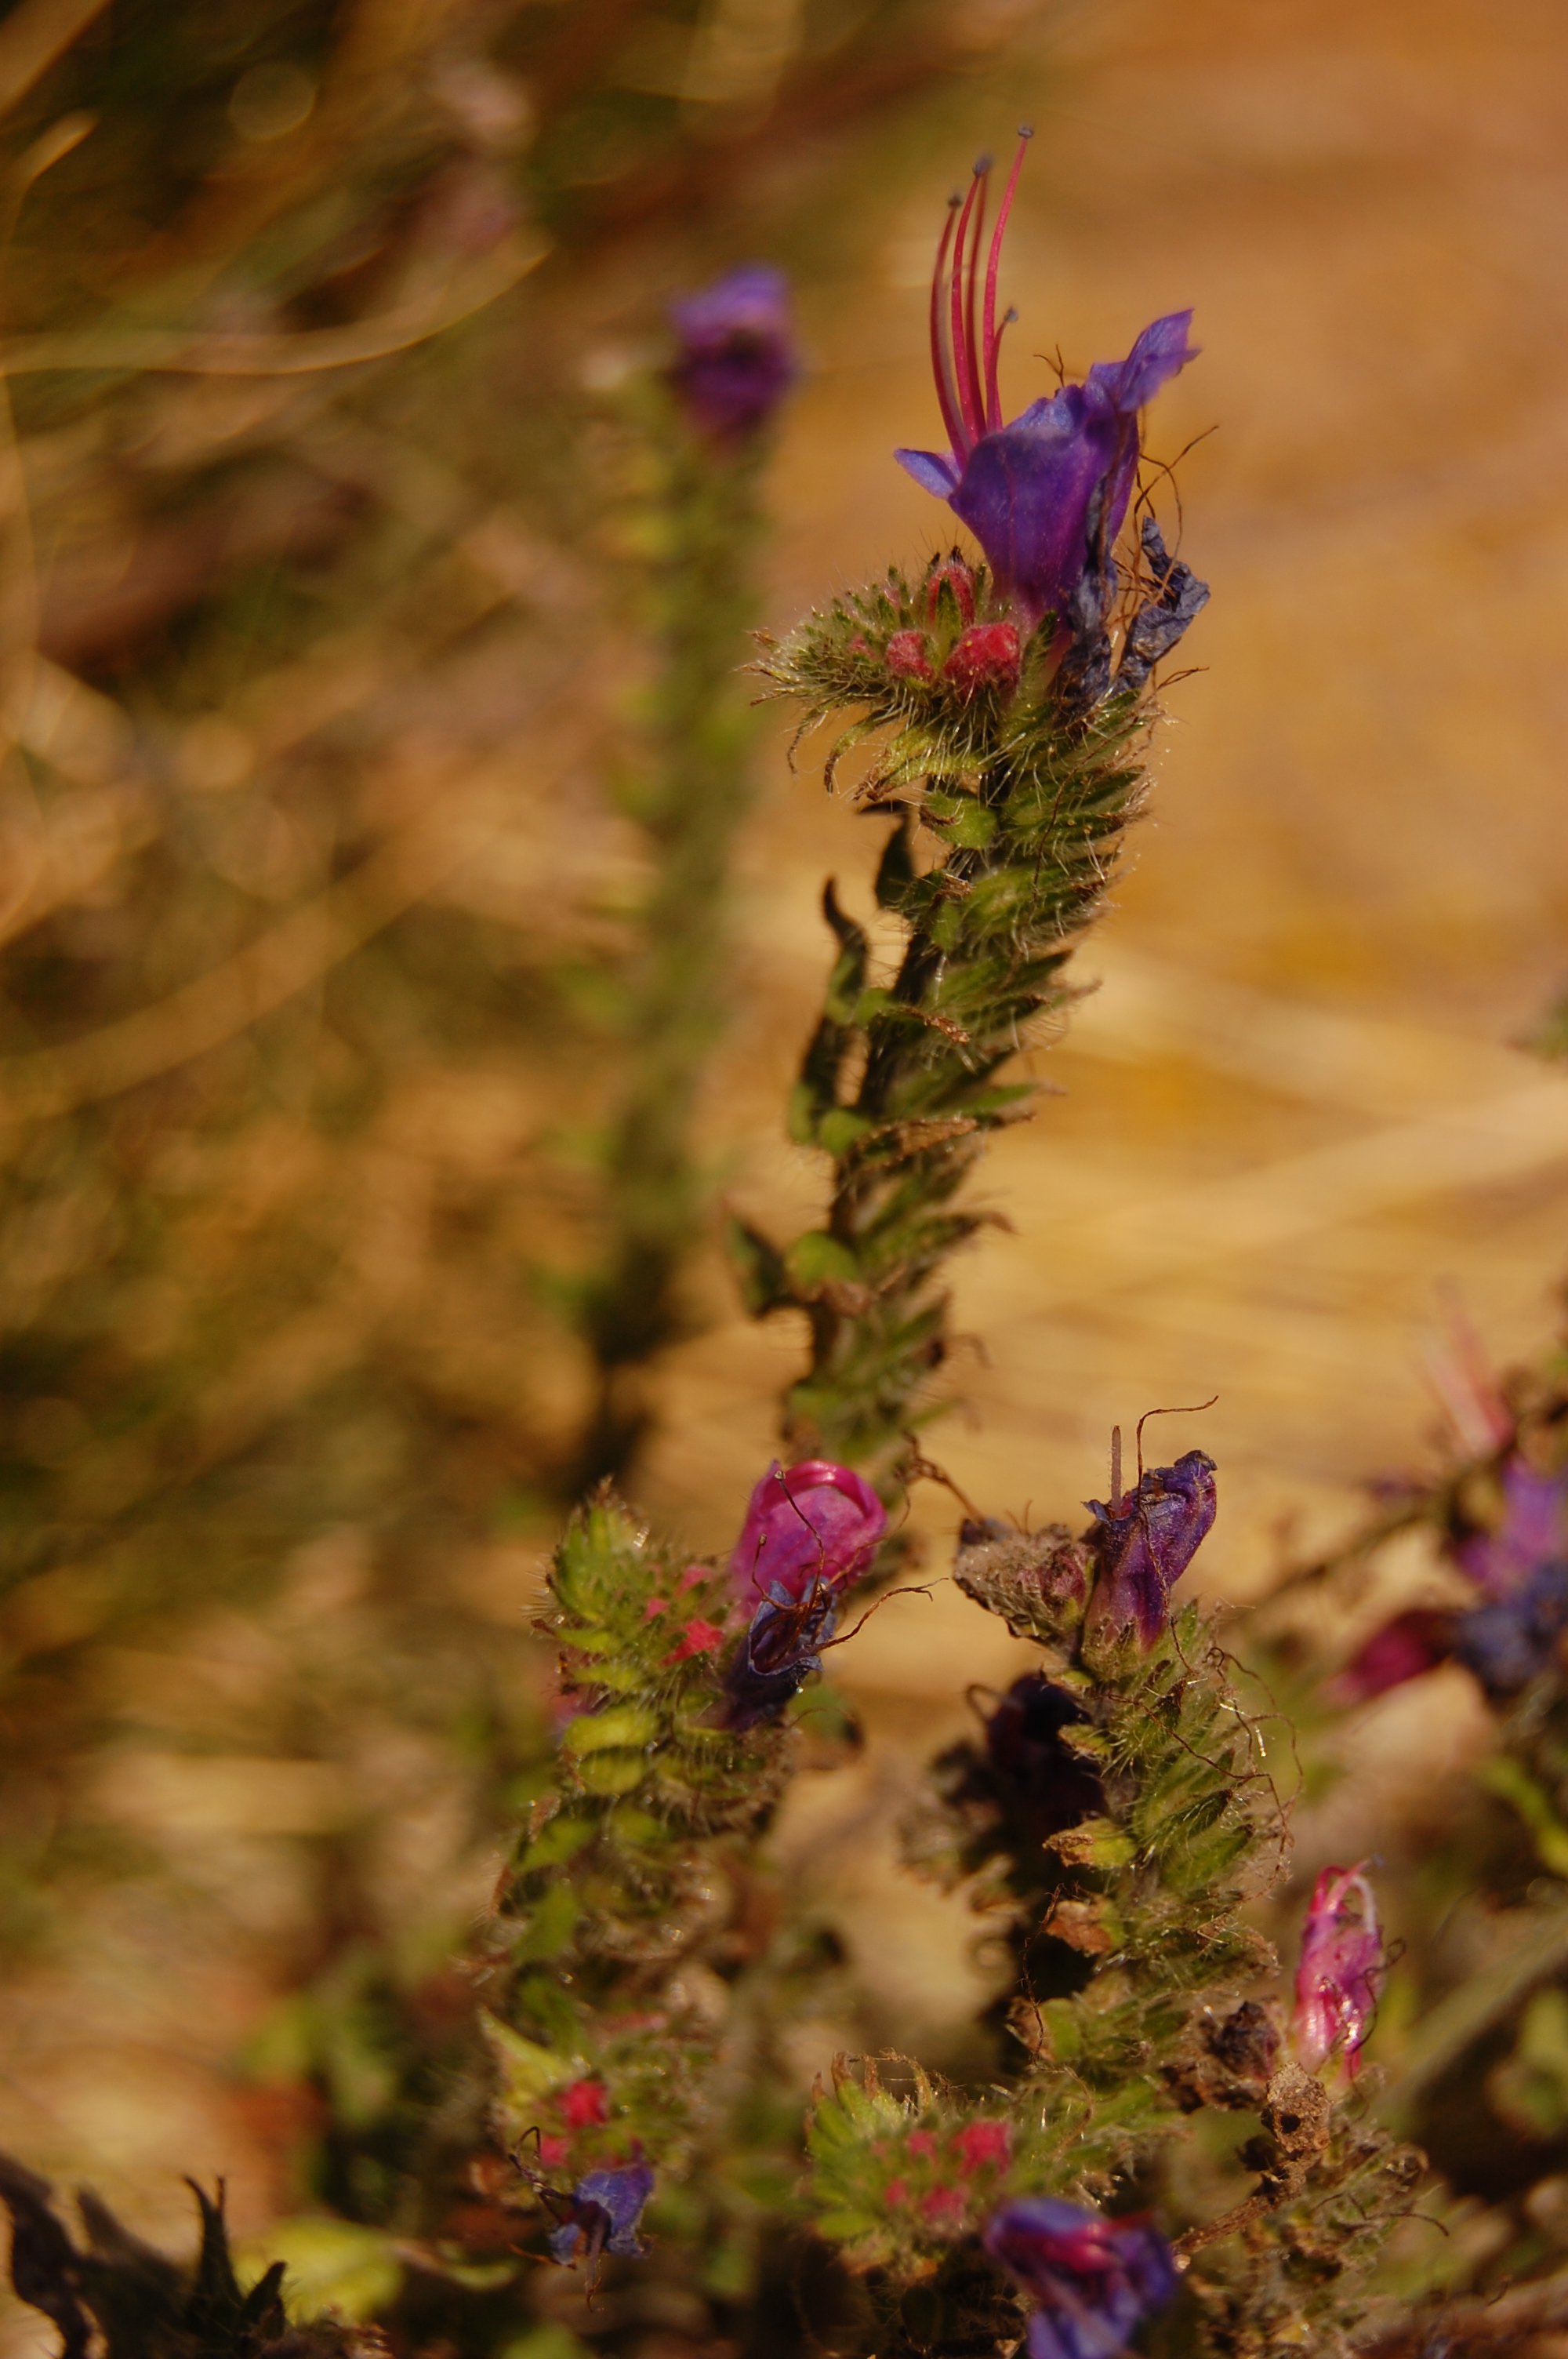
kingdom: Plantae
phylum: Tracheophyta
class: Magnoliopsida
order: Boraginales
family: Boraginaceae
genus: Anchusa
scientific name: Anchusa officinalis
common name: Alkanet
